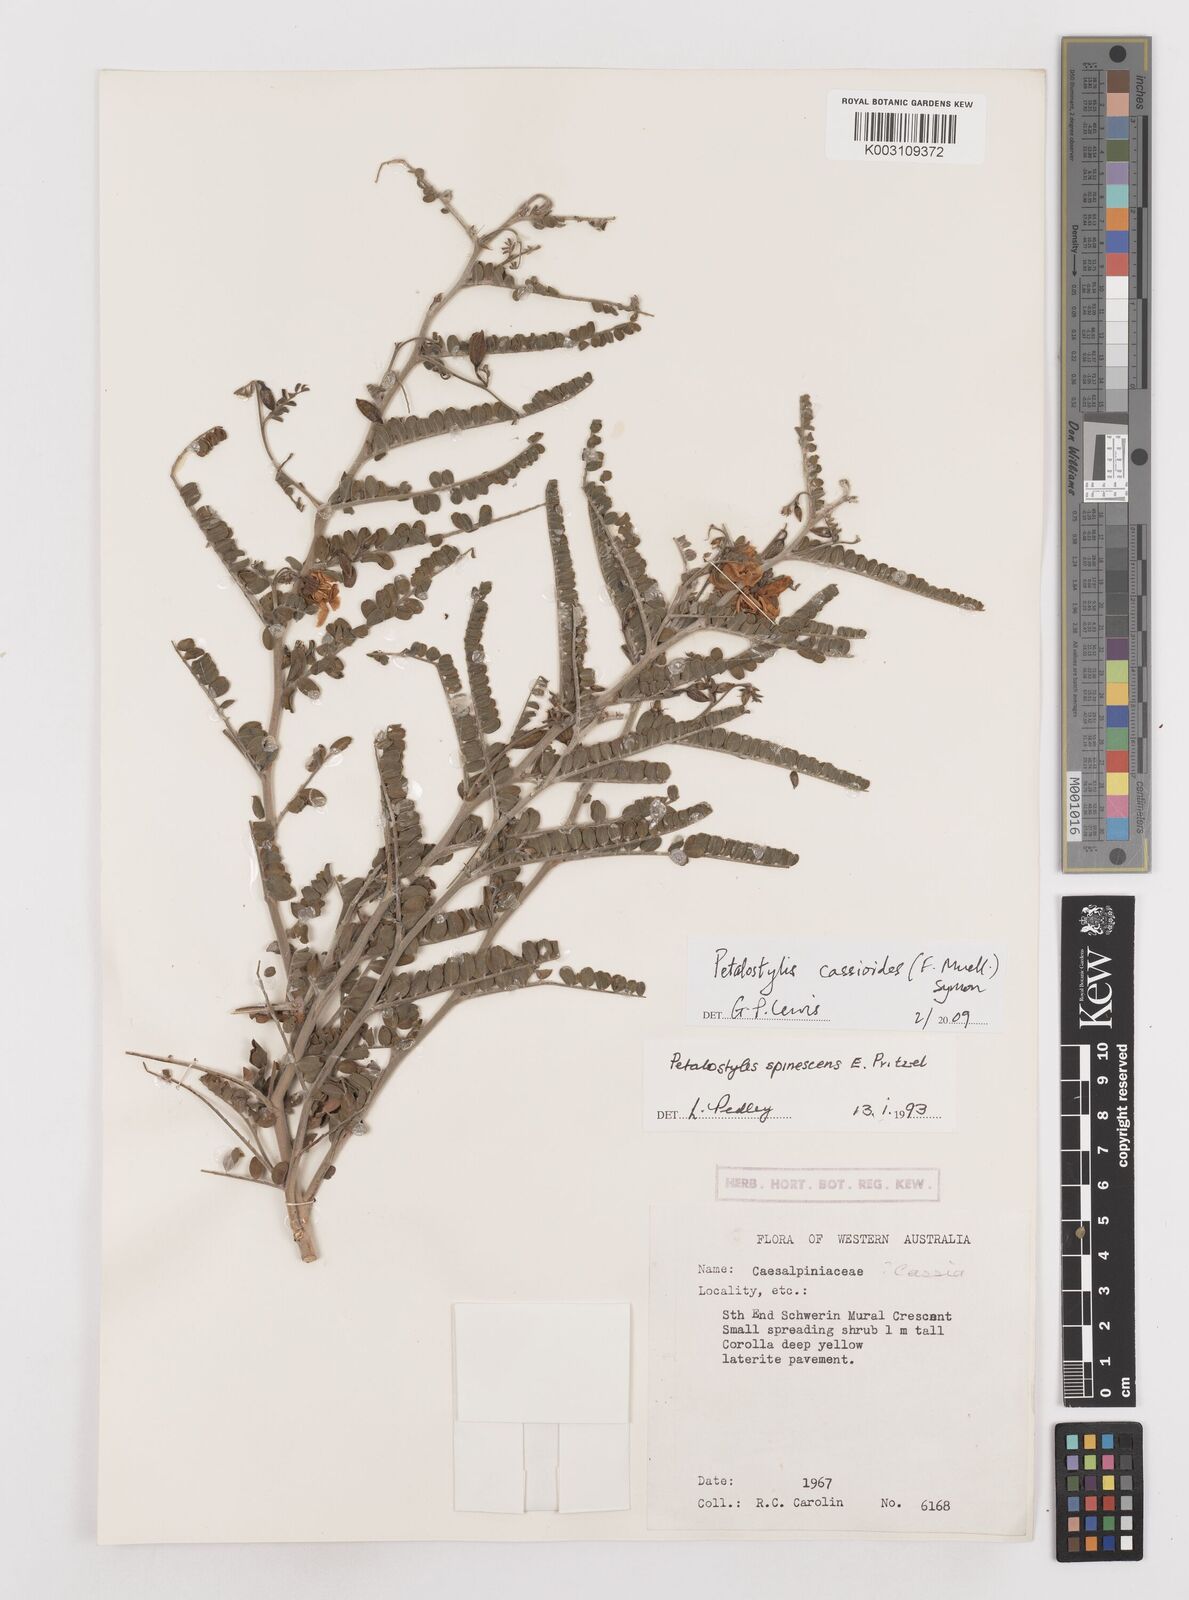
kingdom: Plantae
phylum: Tracheophyta
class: Magnoliopsida
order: Fabales
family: Fabaceae
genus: Petalostylis
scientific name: Petalostylis cassioides
